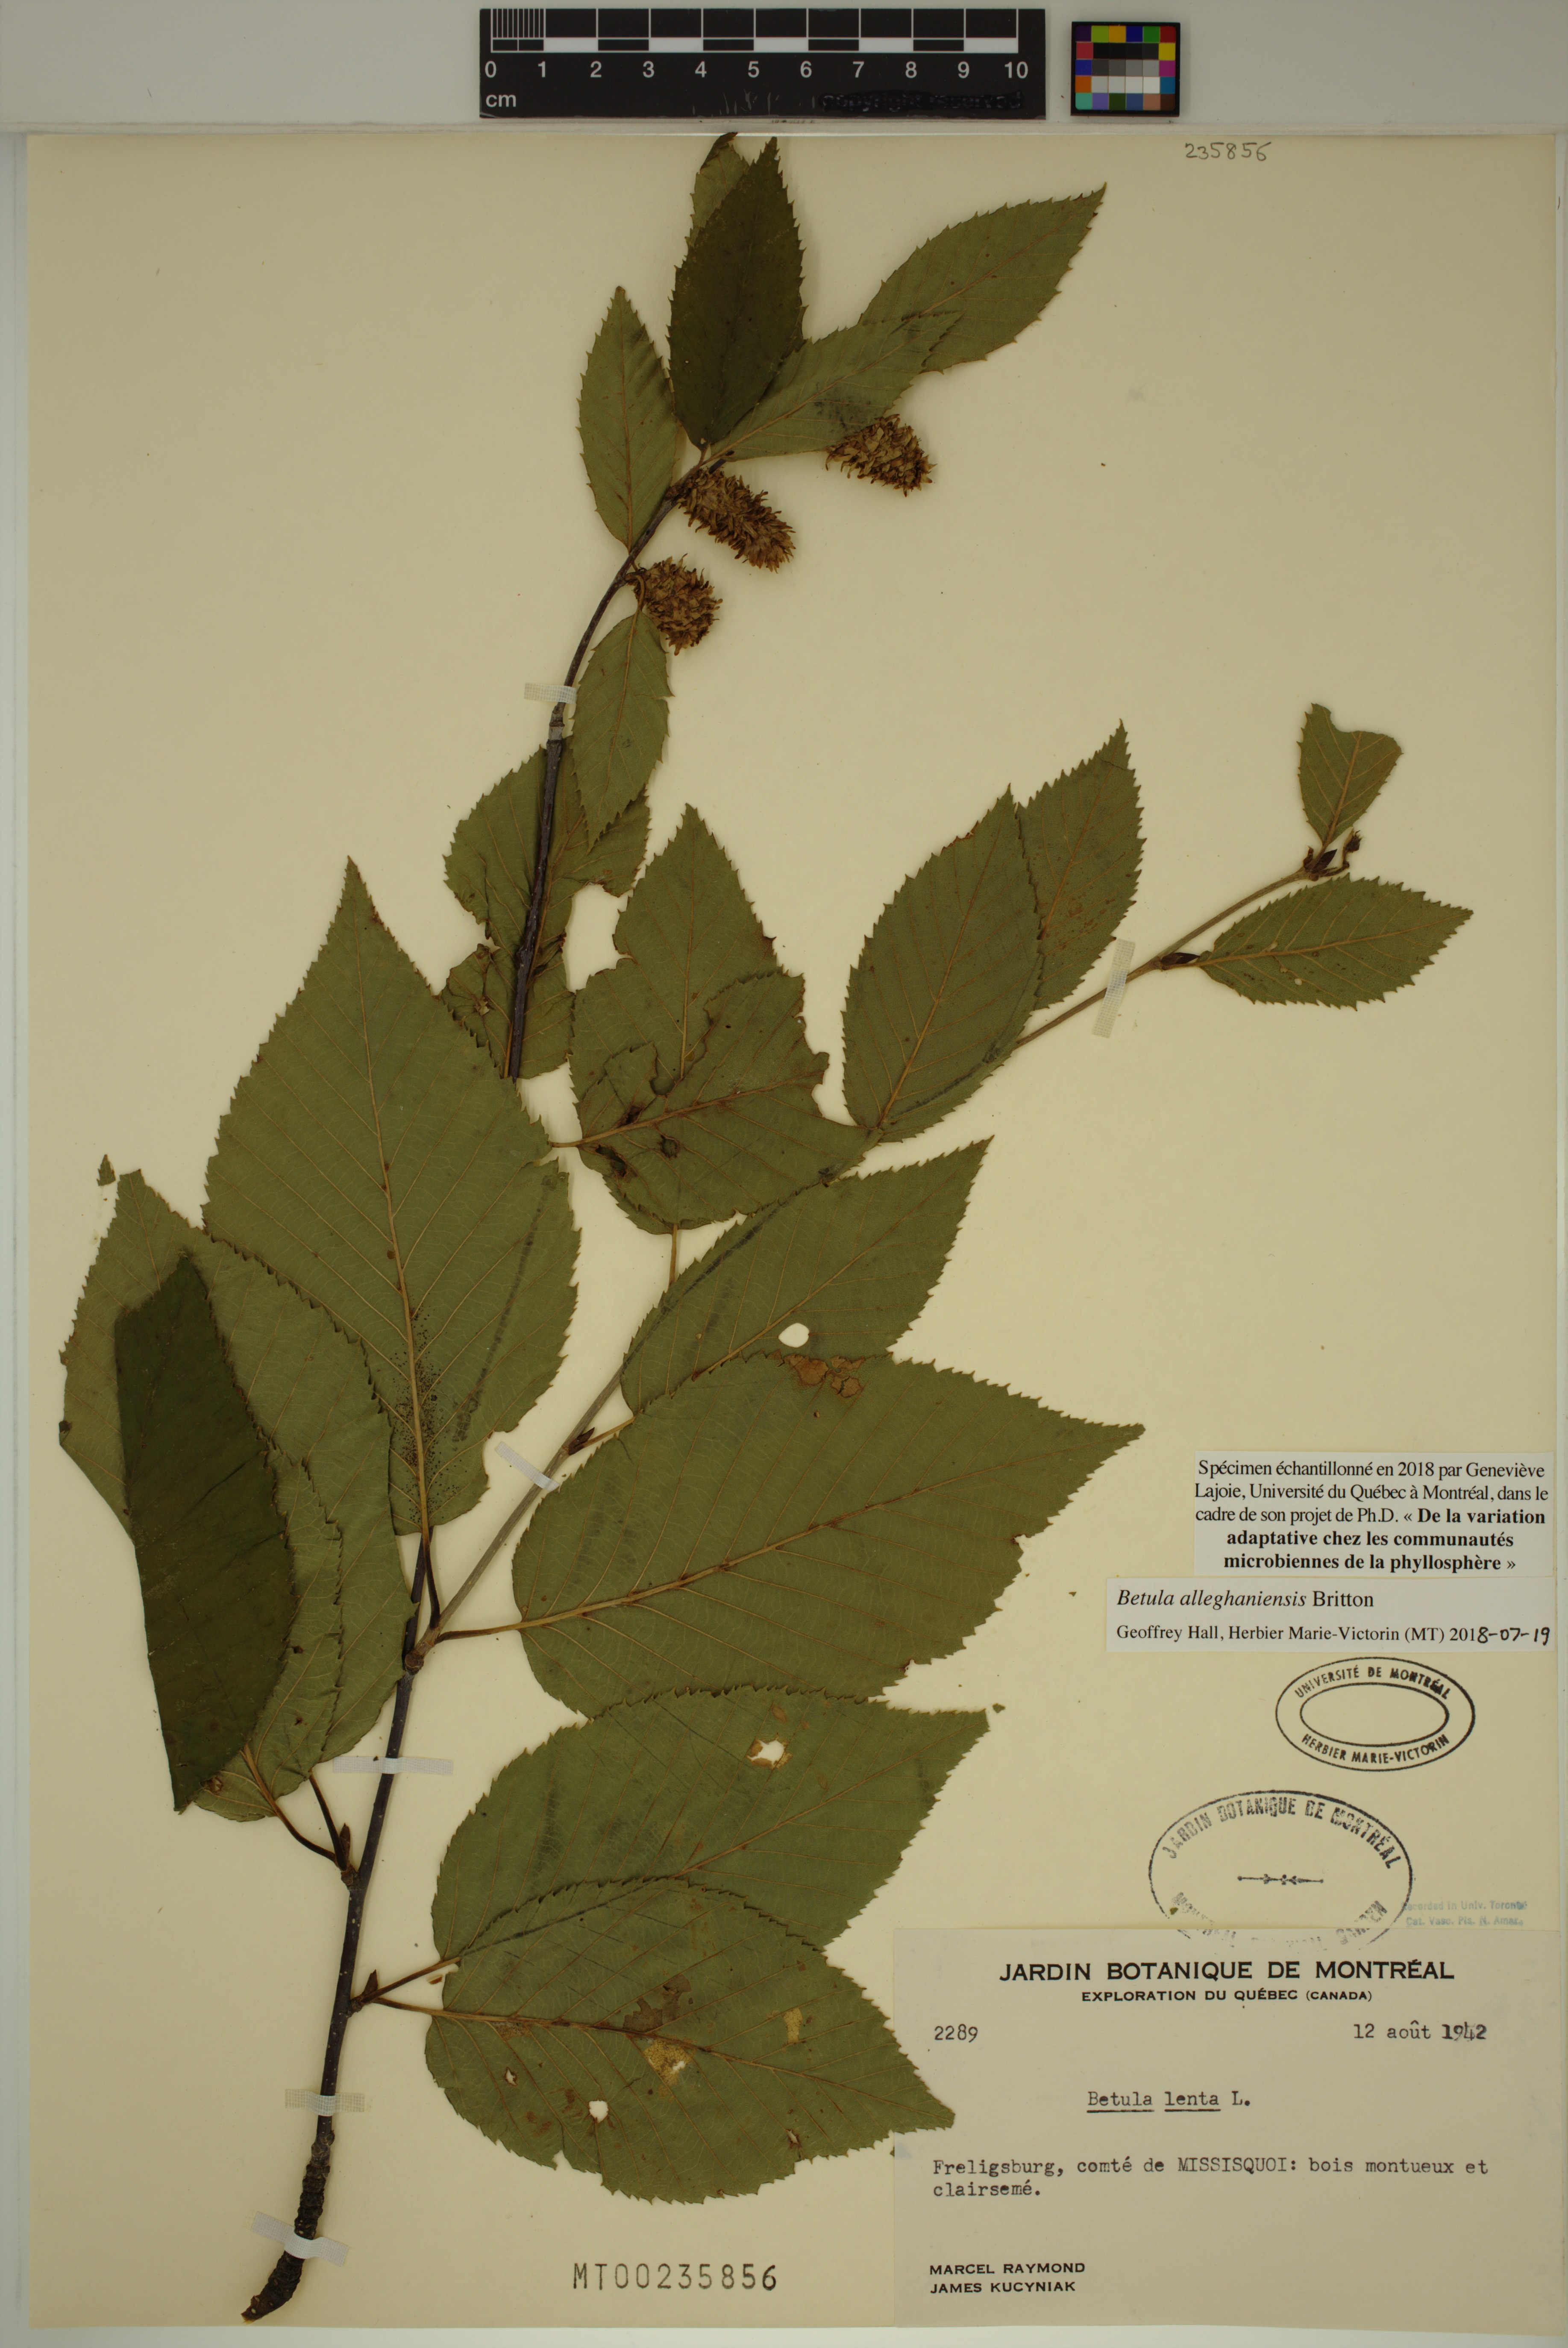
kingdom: Plantae
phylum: Tracheophyta
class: Magnoliopsida
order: Fagales
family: Betulaceae
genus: Betula
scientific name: Betula alleghaniensis
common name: Yellow birch
